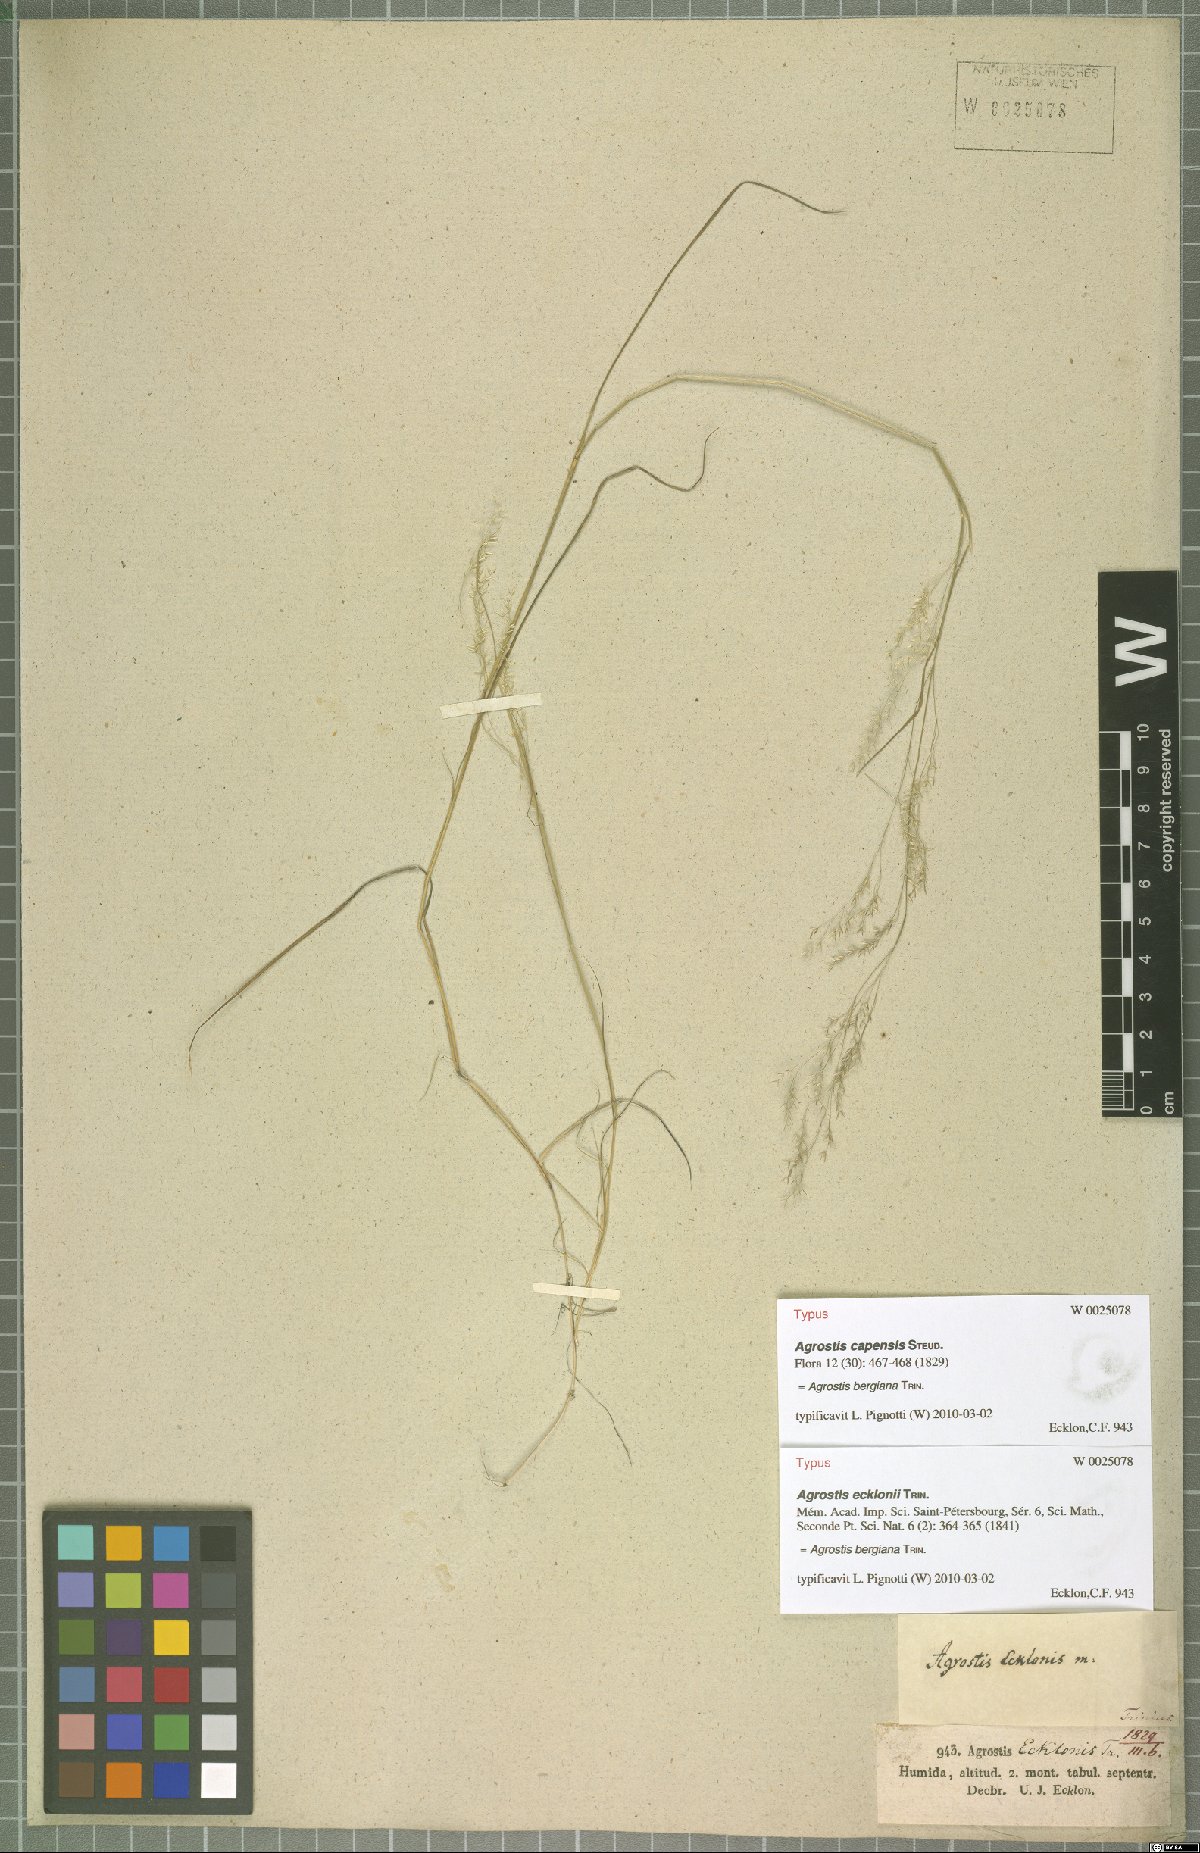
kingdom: Plantae
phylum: Tracheophyta
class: Liliopsida
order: Poales
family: Poaceae
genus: Agrostis
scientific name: Agrostis bergiana
